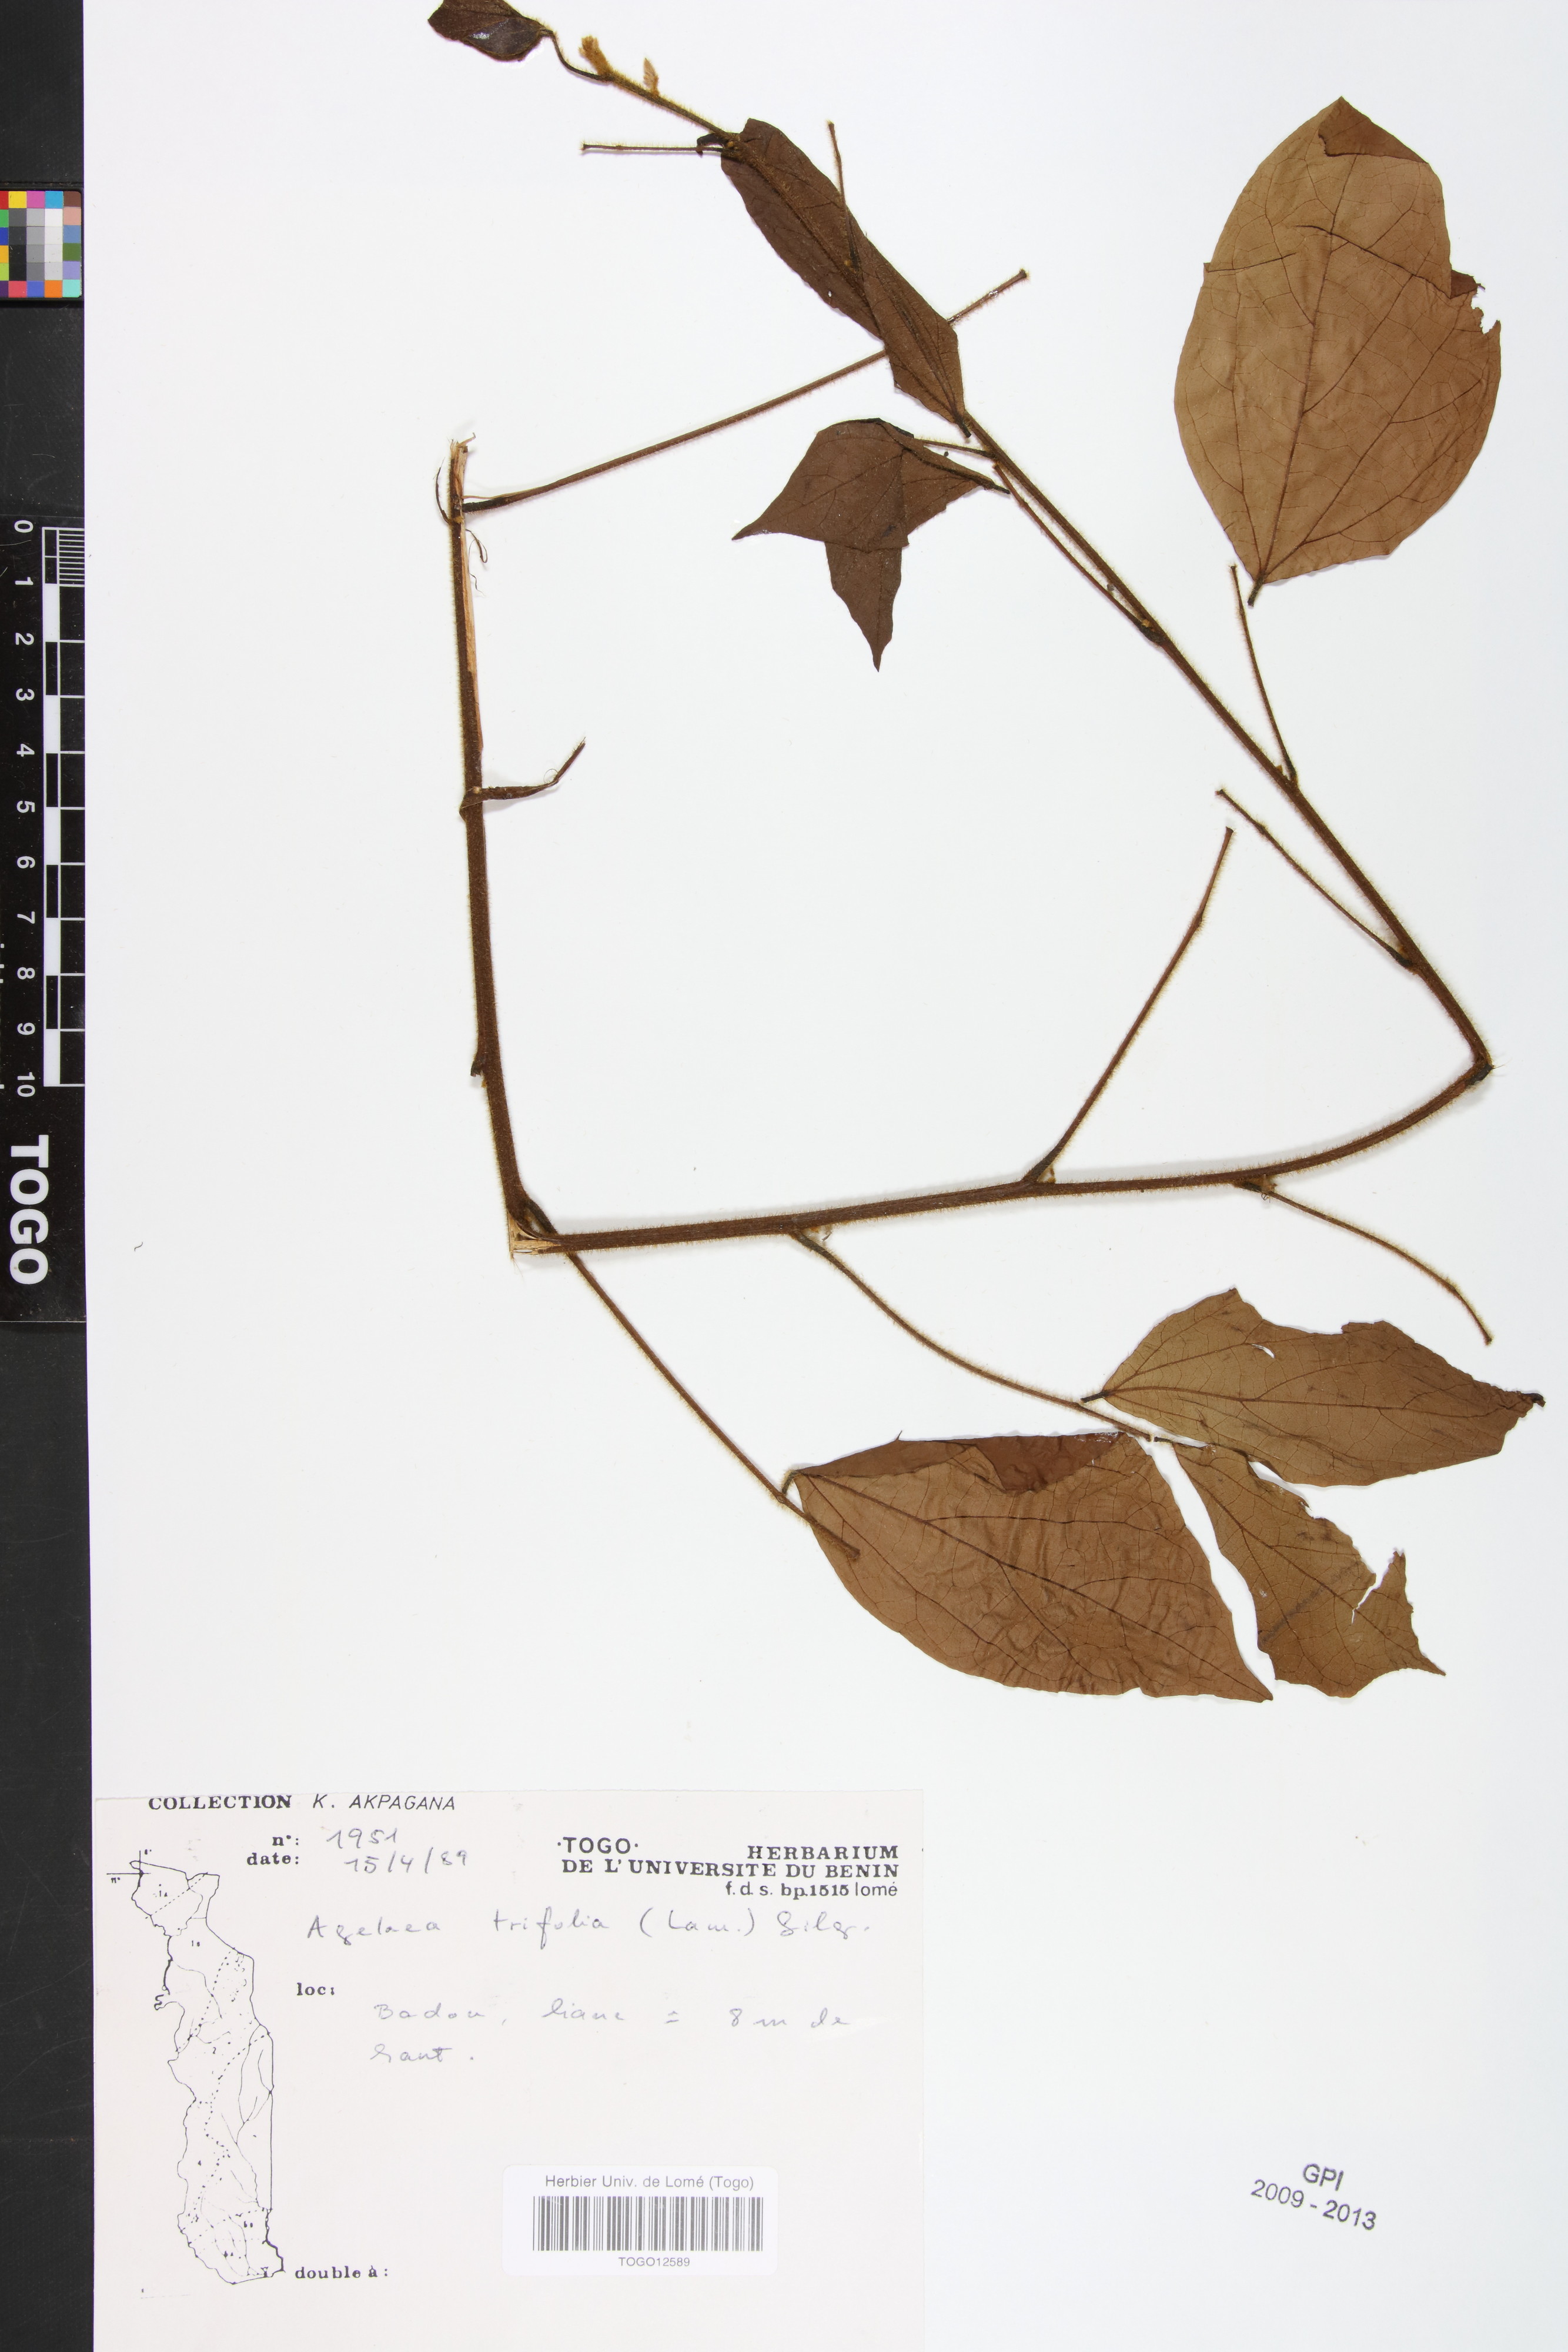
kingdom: Plantae
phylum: Tracheophyta
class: Magnoliopsida
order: Oxalidales
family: Connaraceae
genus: Agelaea
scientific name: Agelaea pentagyna
